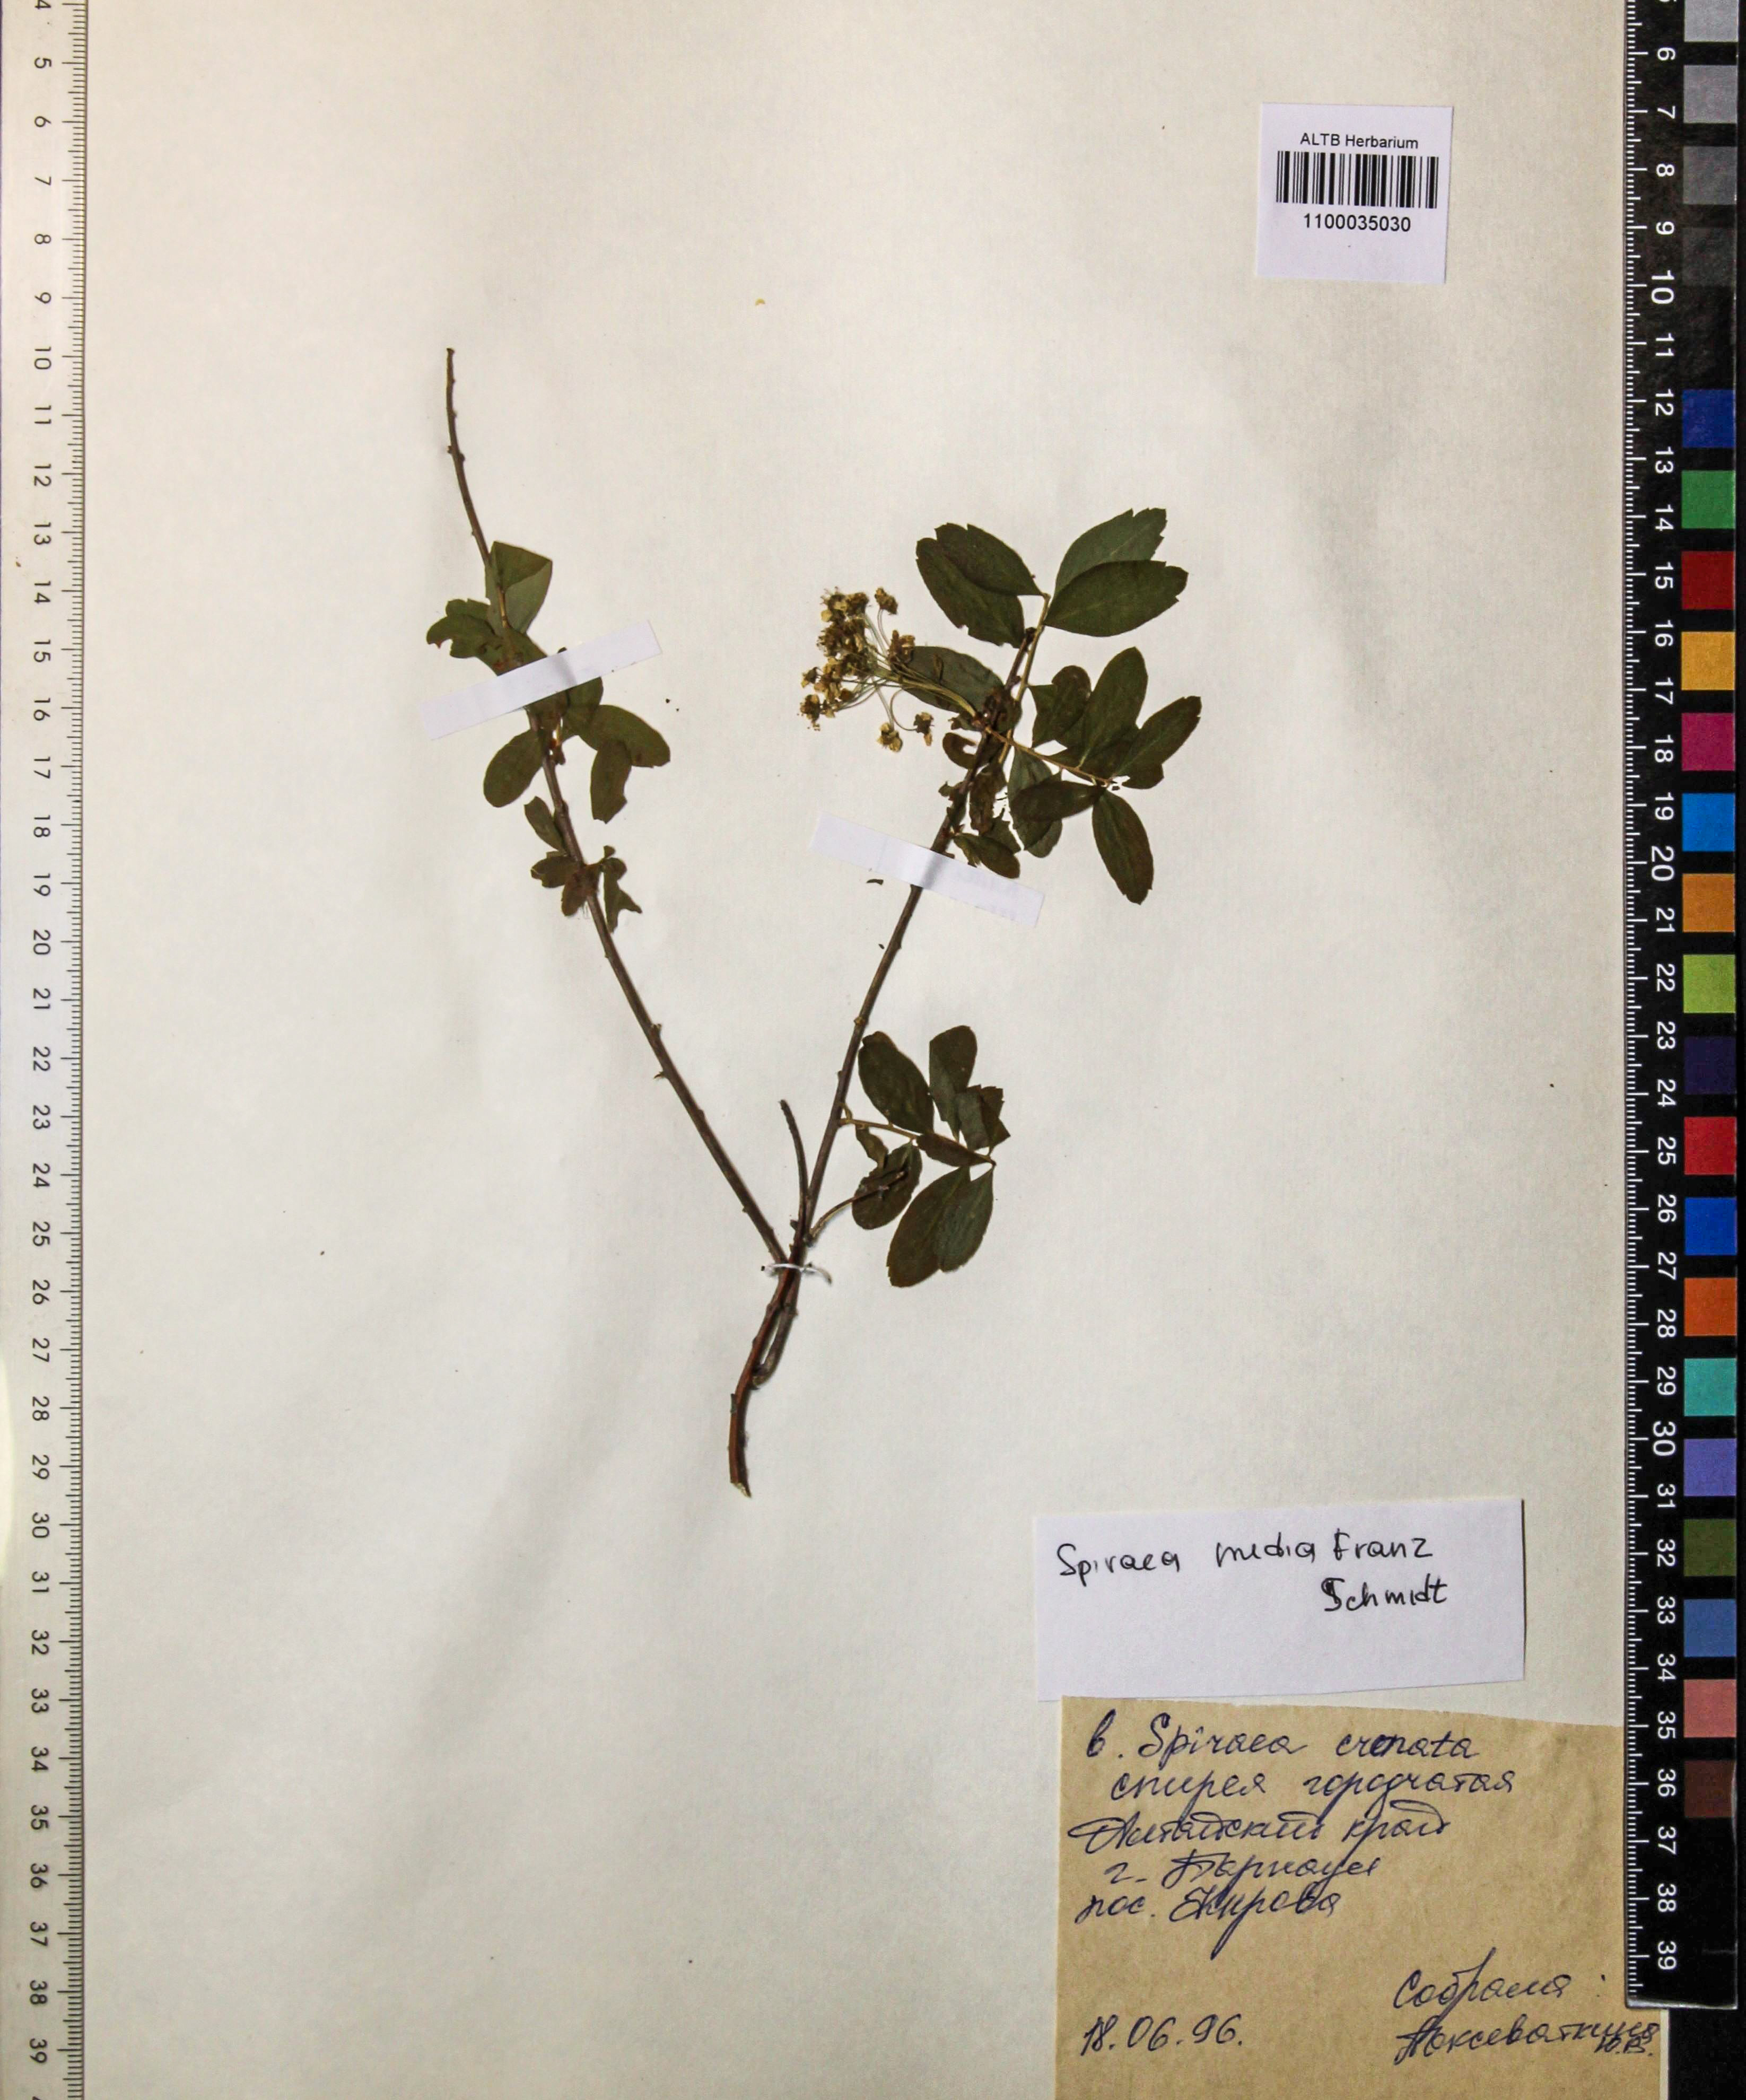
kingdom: Plantae
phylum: Tracheophyta
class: Magnoliopsida
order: Rosales
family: Rosaceae
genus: Spiraea
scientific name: Spiraea media
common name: Russian spiraea
